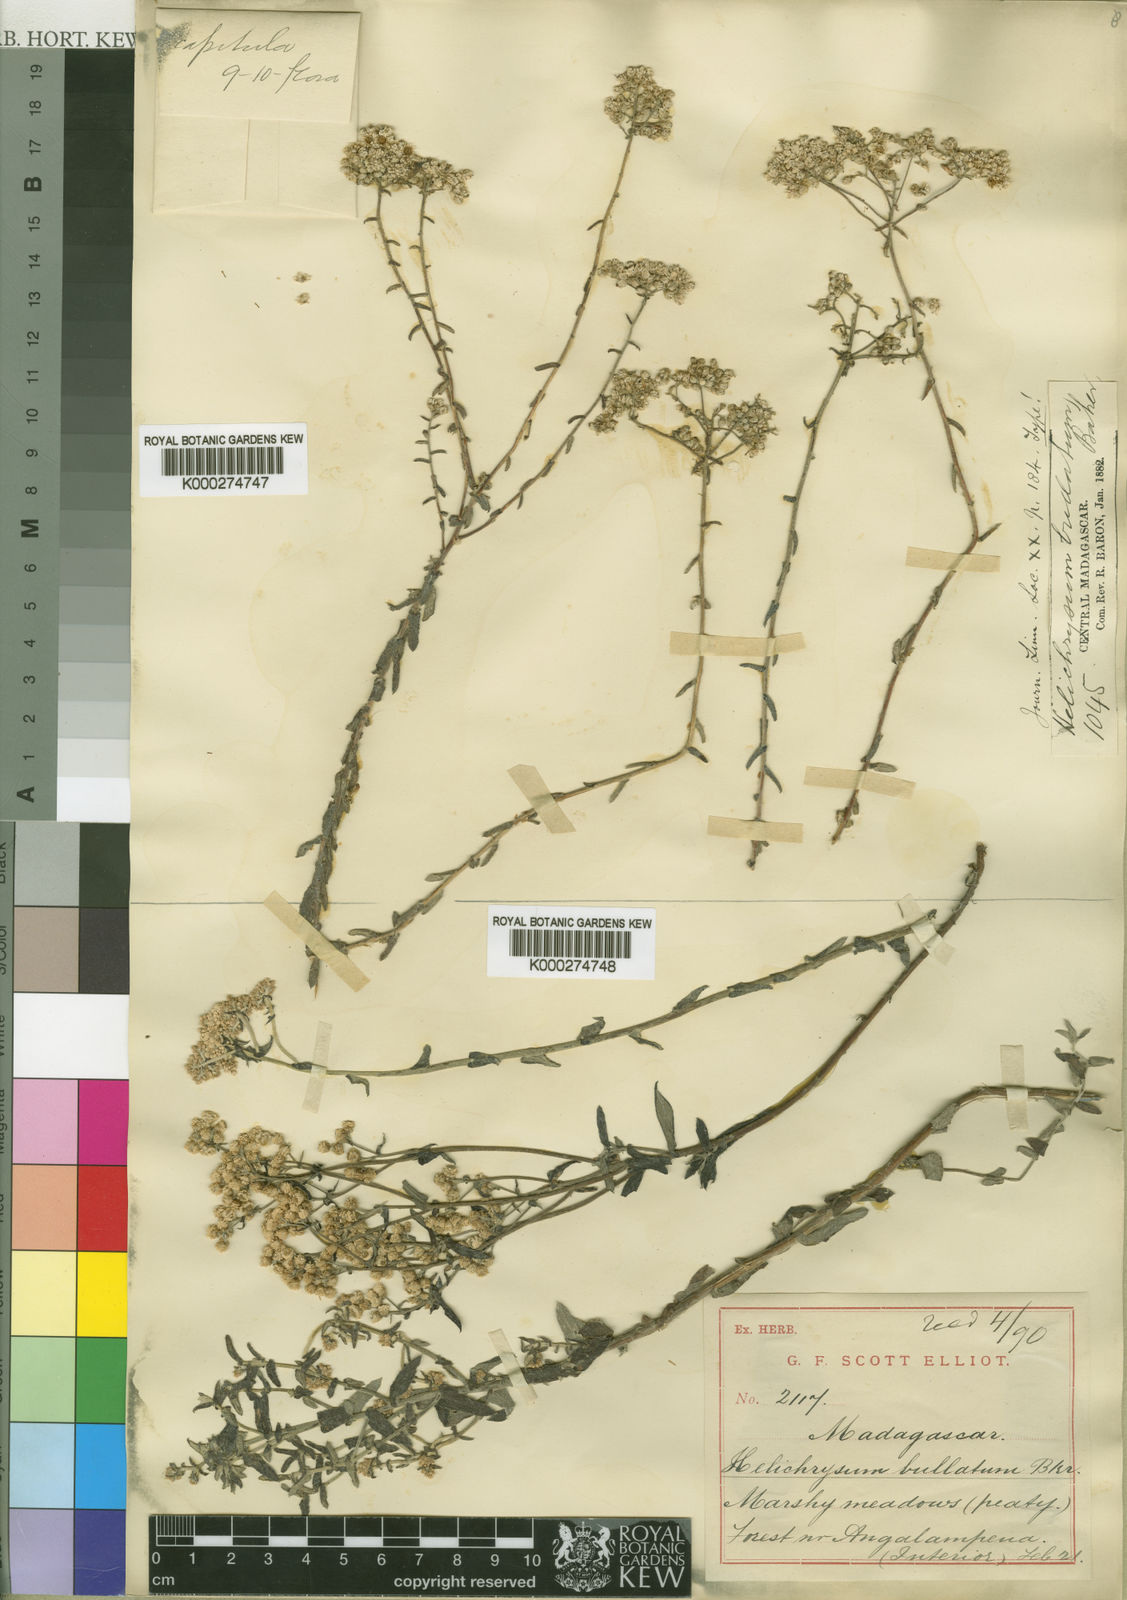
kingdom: Plantae
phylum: Tracheophyta
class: Magnoliopsida
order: Asterales
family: Asteraceae
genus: Helichrysum
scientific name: Helichrysum microcephalum
